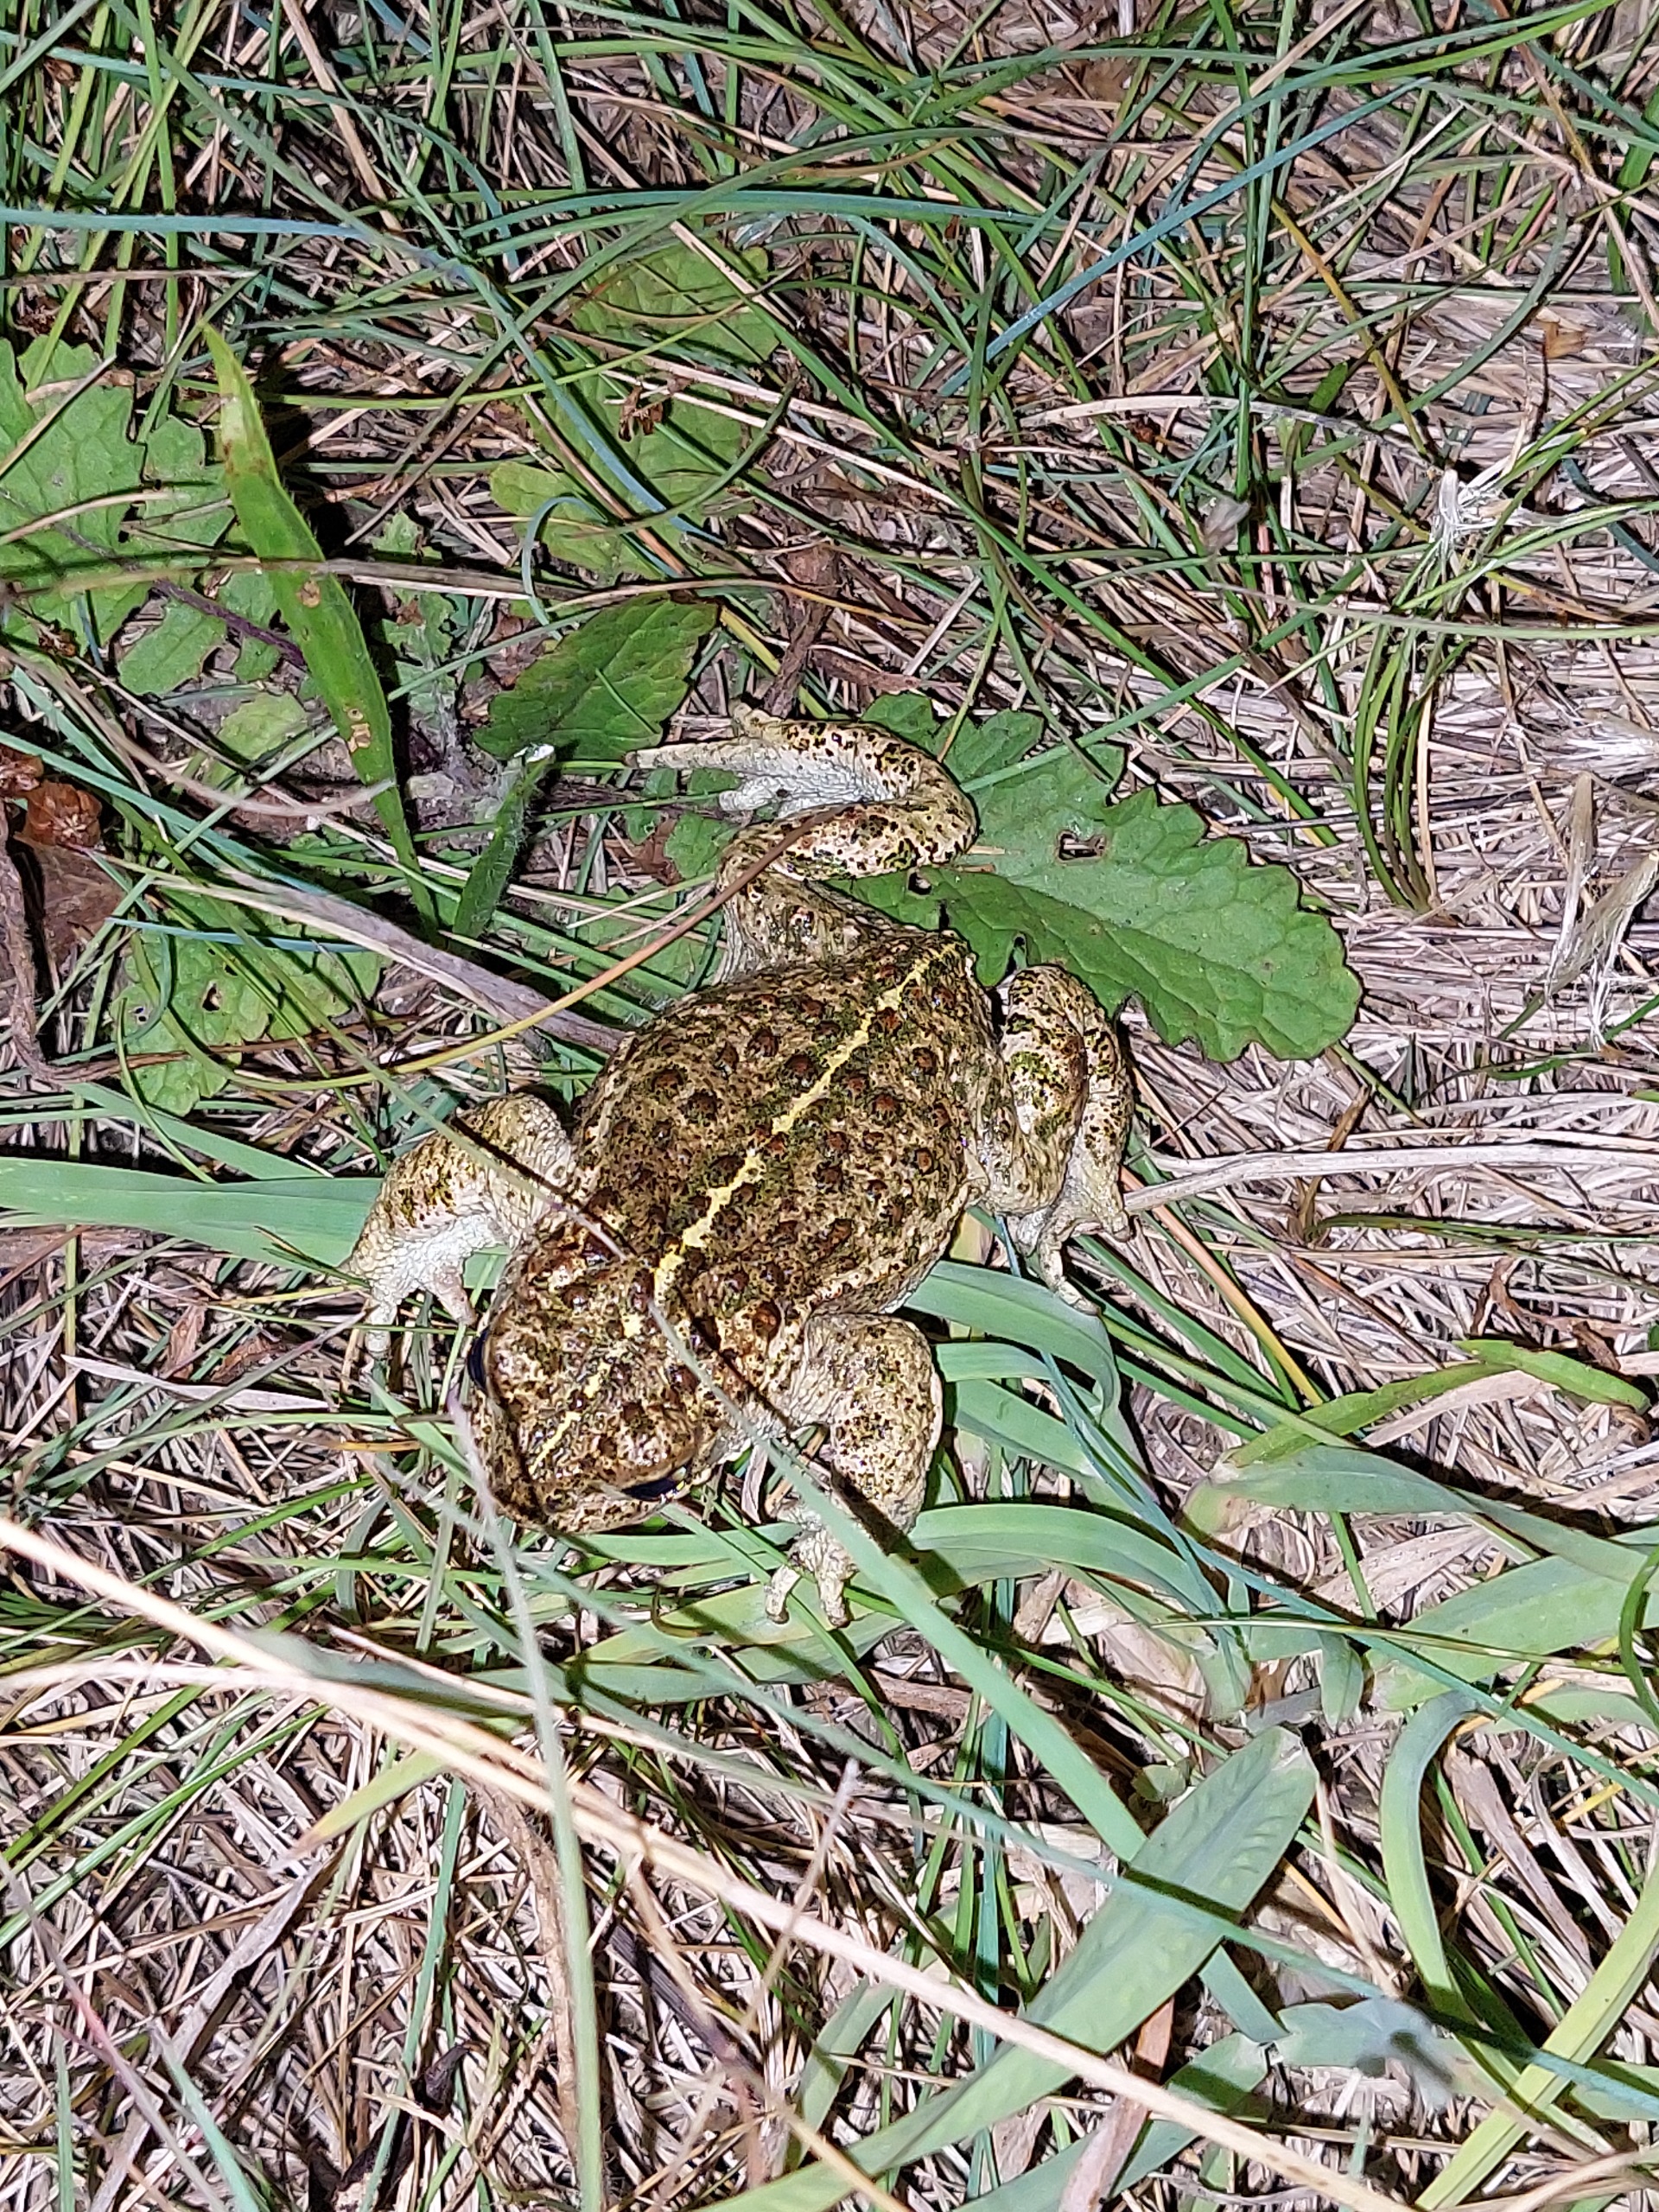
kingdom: Animalia
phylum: Chordata
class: Amphibia
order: Anura
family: Bufonidae
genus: Epidalea
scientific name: Epidalea calamita
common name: Strandtudse
